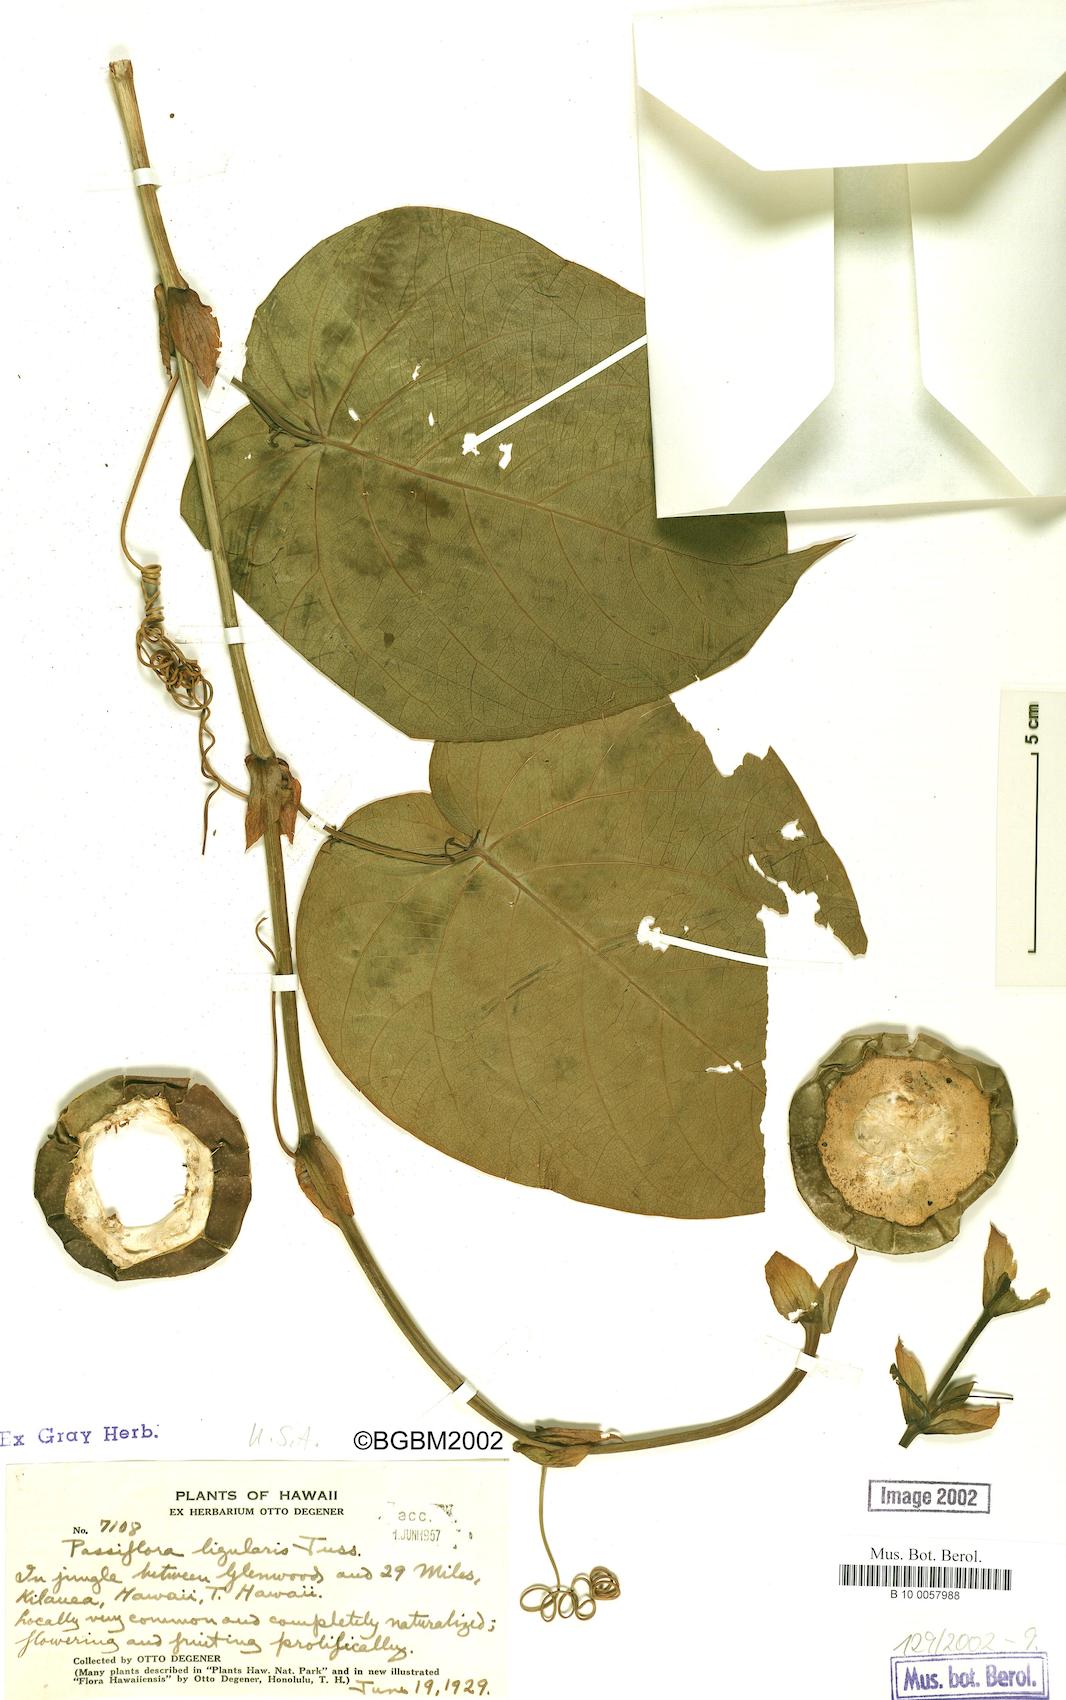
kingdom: Plantae
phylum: Tracheophyta
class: Magnoliopsida
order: Malpighiales
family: Passifloraceae
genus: Passiflora
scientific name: Passiflora ligularis
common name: Sweet granadilla
